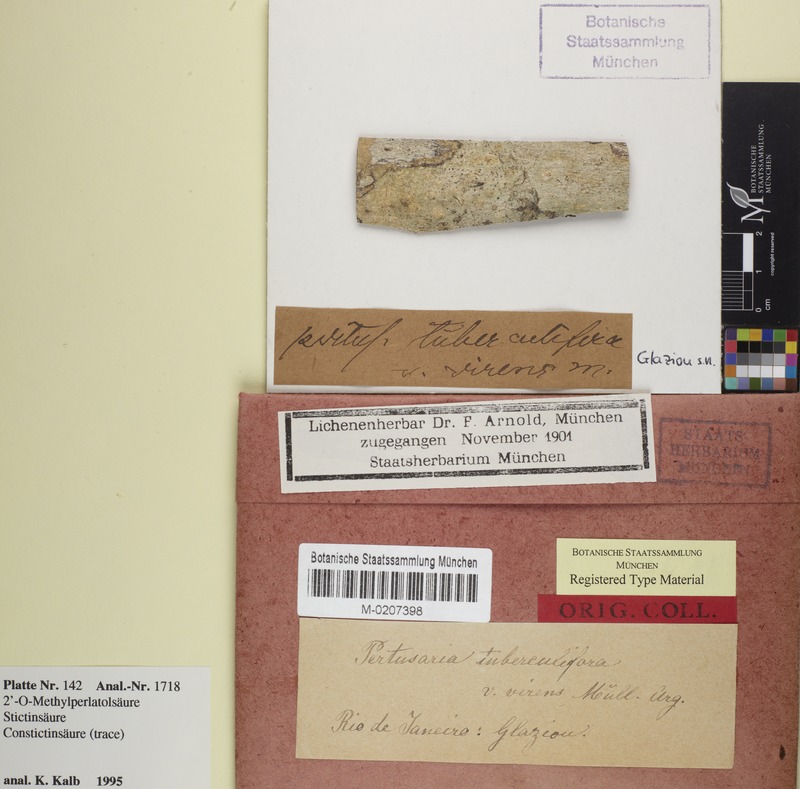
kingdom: Fungi
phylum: Ascomycota
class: Lecanoromycetes
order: Pertusariales
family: Pertusariaceae
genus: Pertusaria
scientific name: Pertusaria tuberculifera
